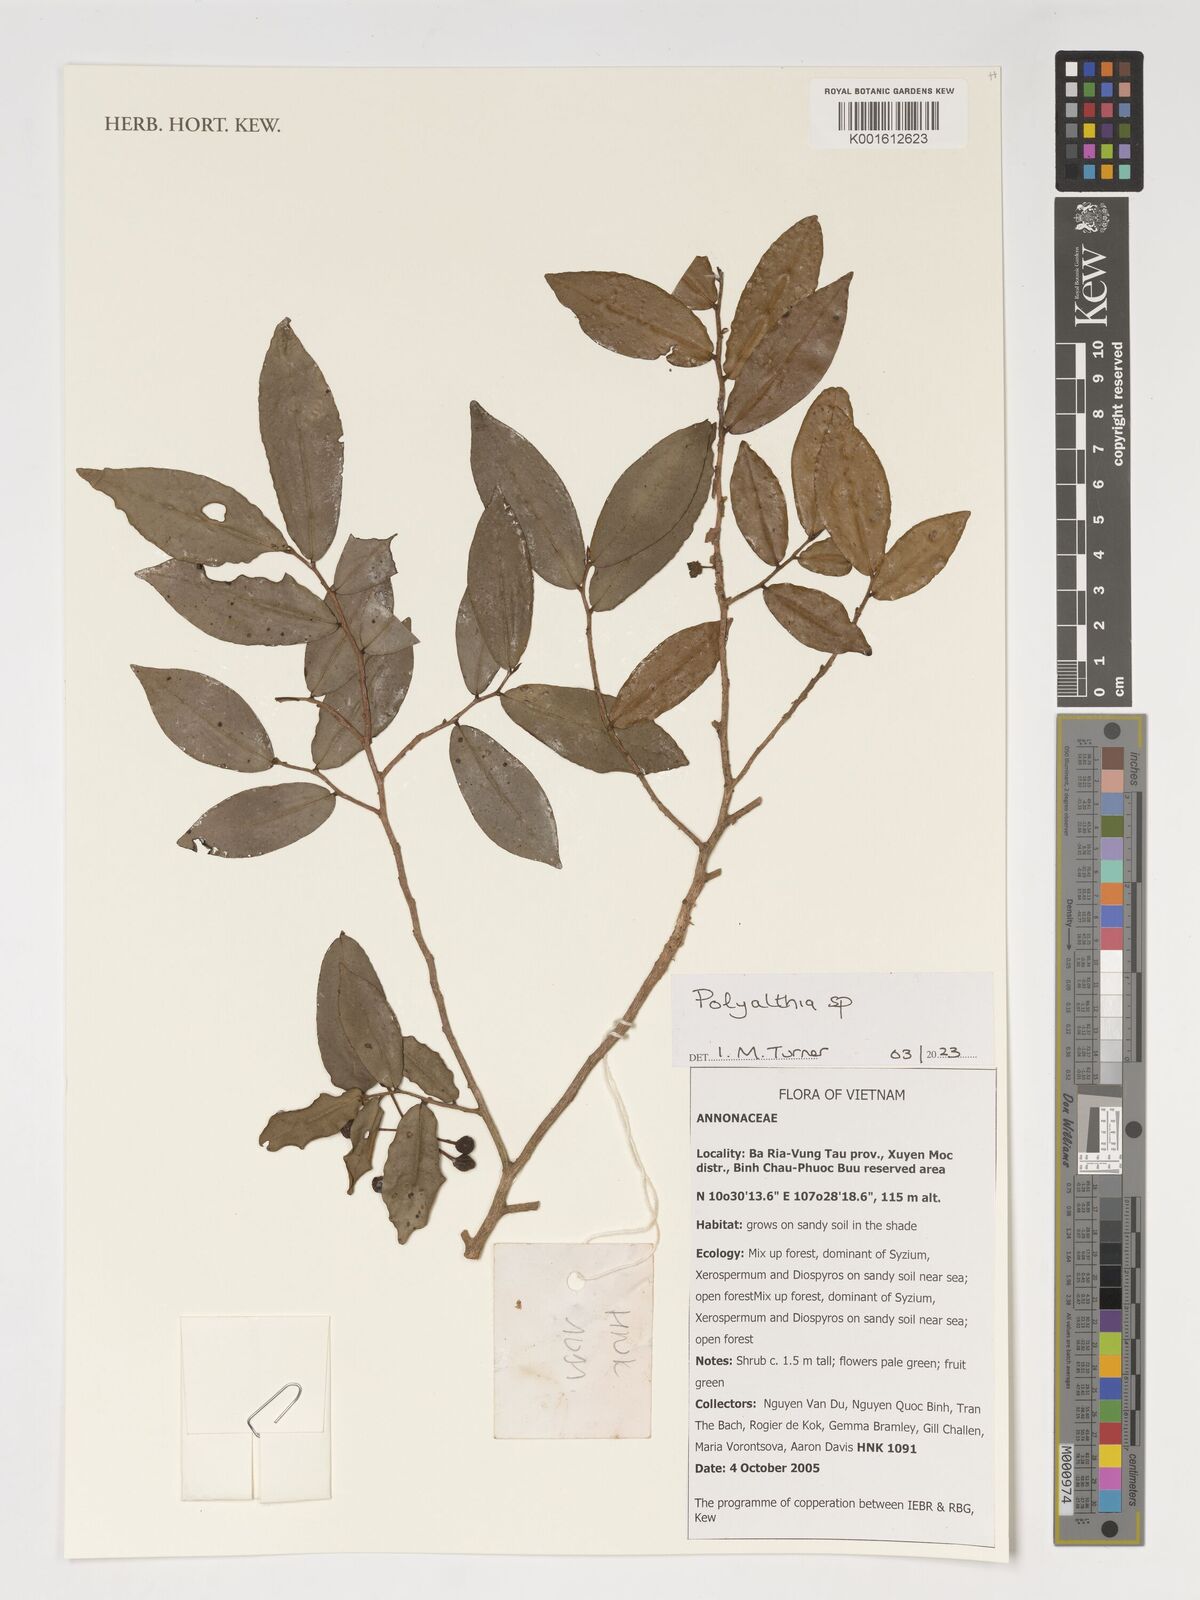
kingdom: Plantae
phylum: Tracheophyta
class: Magnoliopsida
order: Magnoliales
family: Annonaceae
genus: Polyalthia
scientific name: Polyalthia
